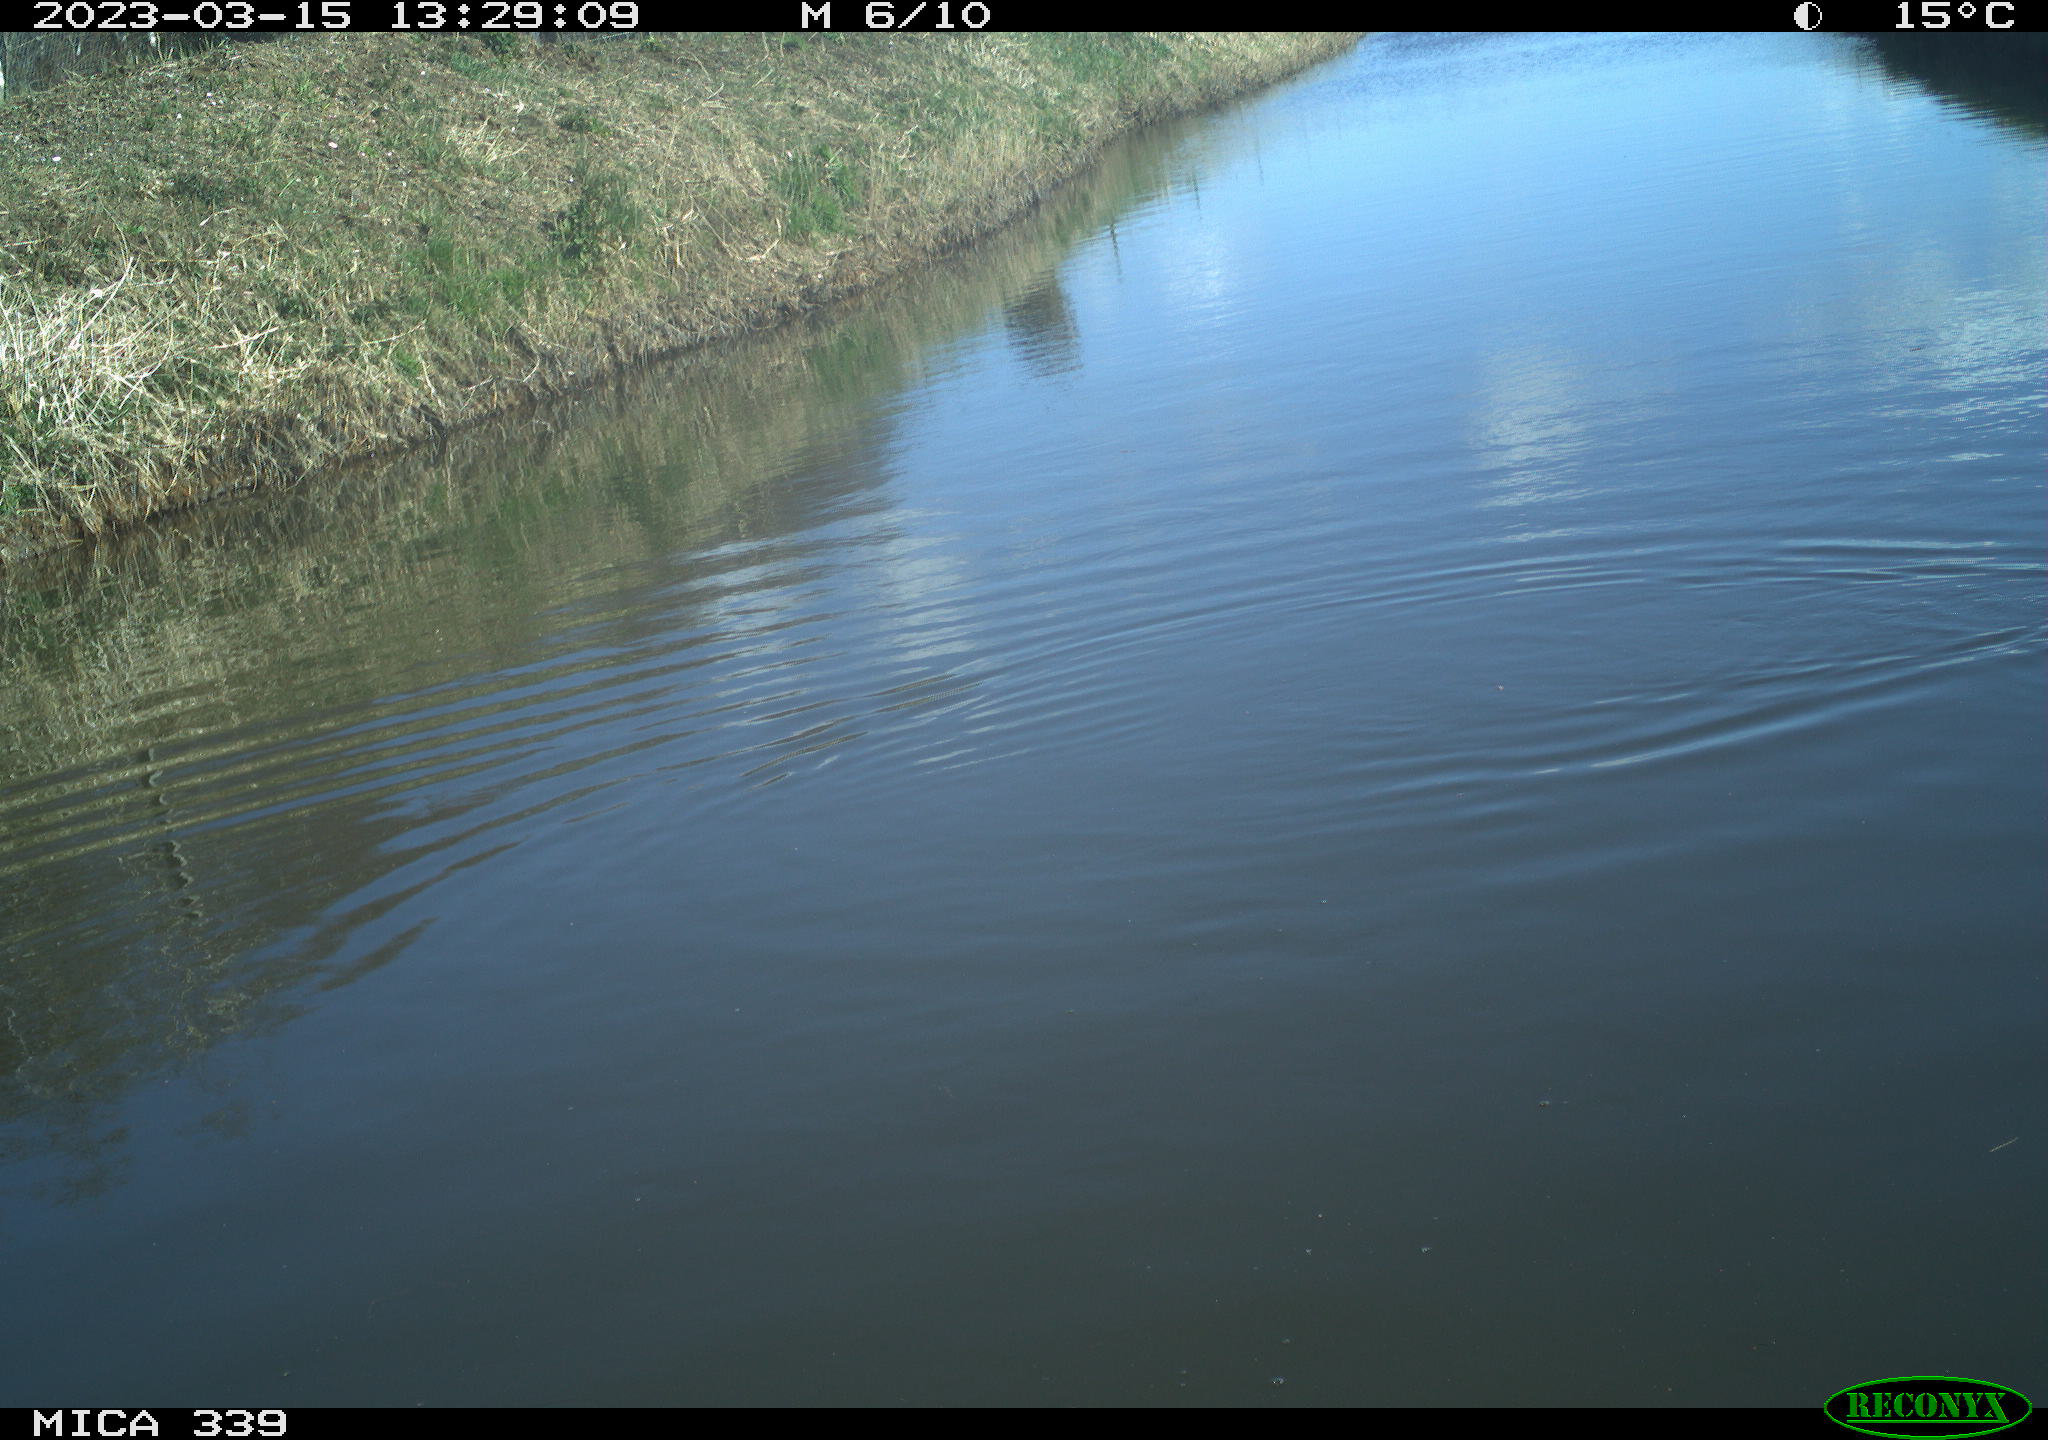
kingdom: Animalia
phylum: Chordata
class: Aves
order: Anseriformes
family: Anatidae
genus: Anas
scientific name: Anas
